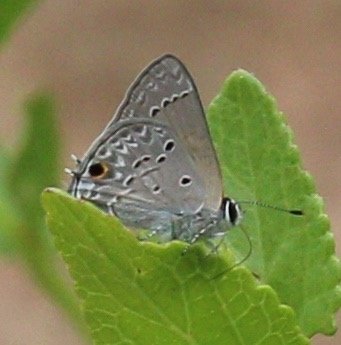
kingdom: Animalia
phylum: Arthropoda
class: Insecta
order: Lepidoptera
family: Lycaenidae
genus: Callicista
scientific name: Callicista columella
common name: Mallow Scrub-Hairstreak
